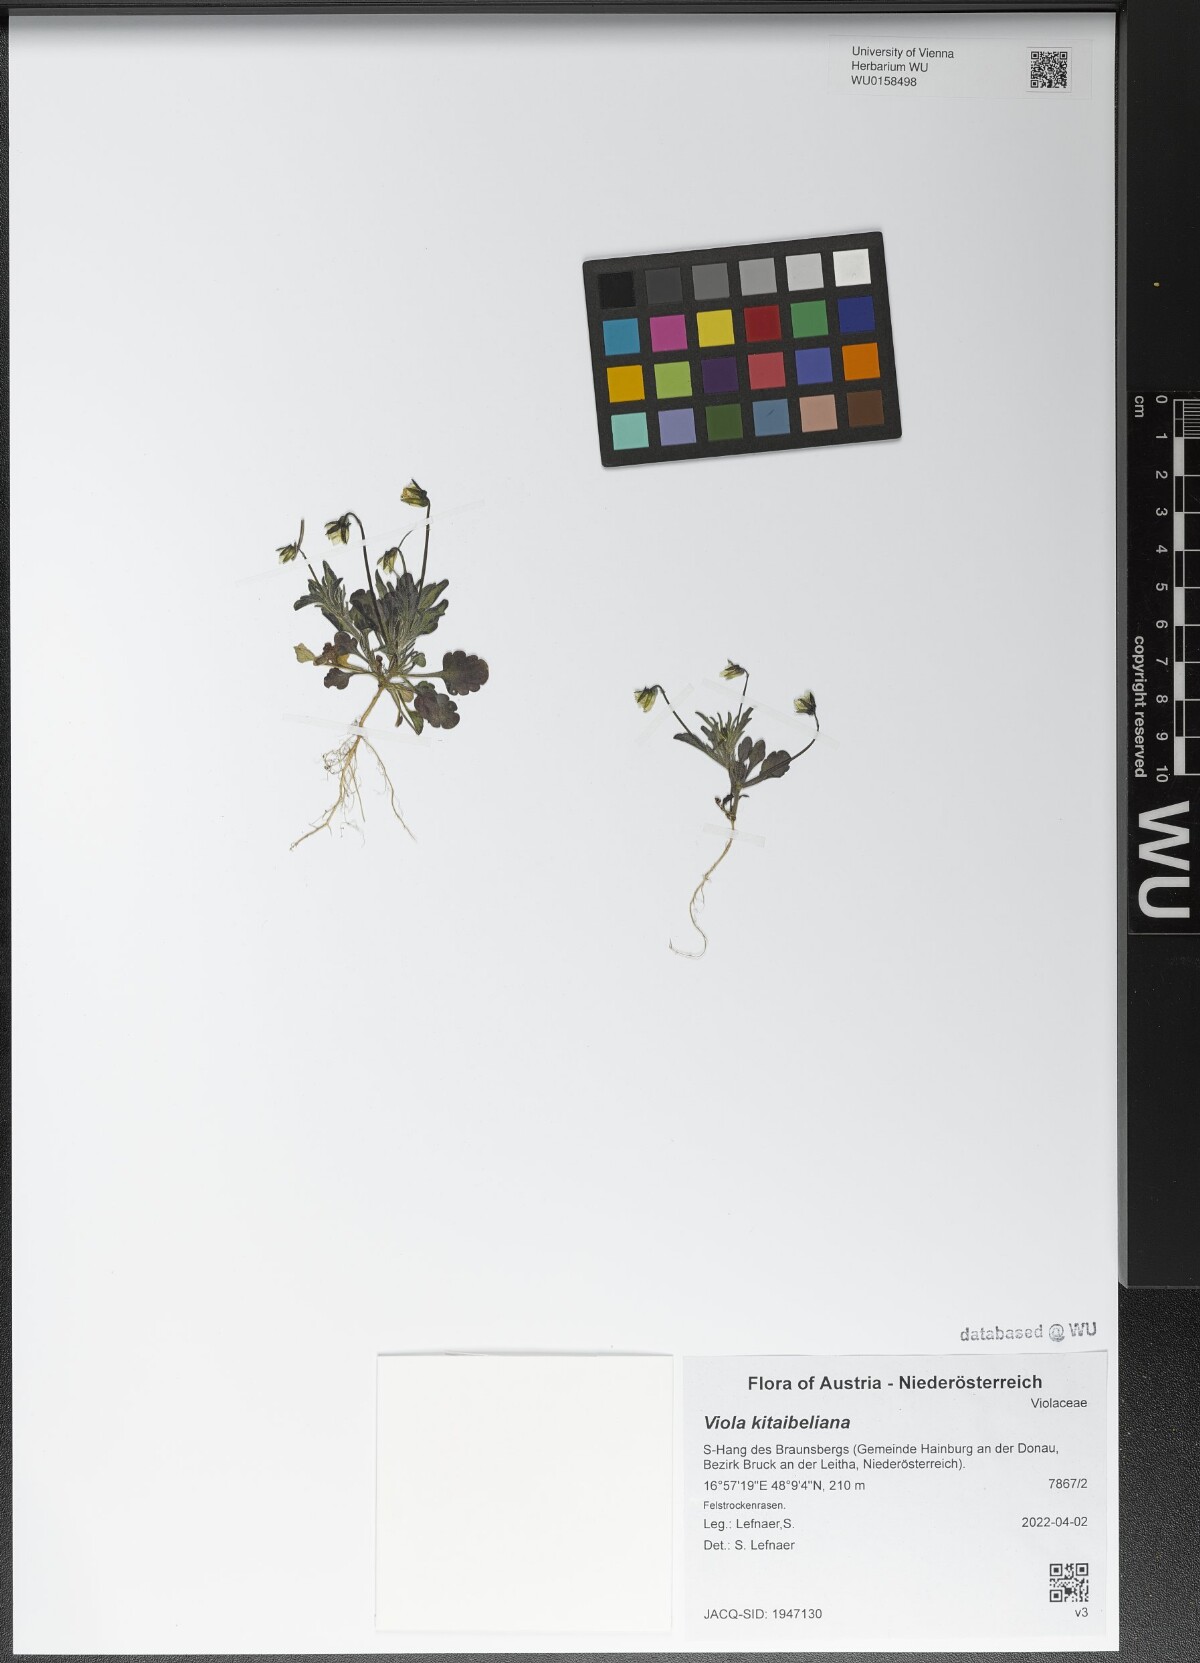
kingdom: Plantae
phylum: Tracheophyta
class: Magnoliopsida
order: Malpighiales
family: Violaceae
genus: Viola
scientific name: Viola kitaibeliana
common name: Dwarf pansy
